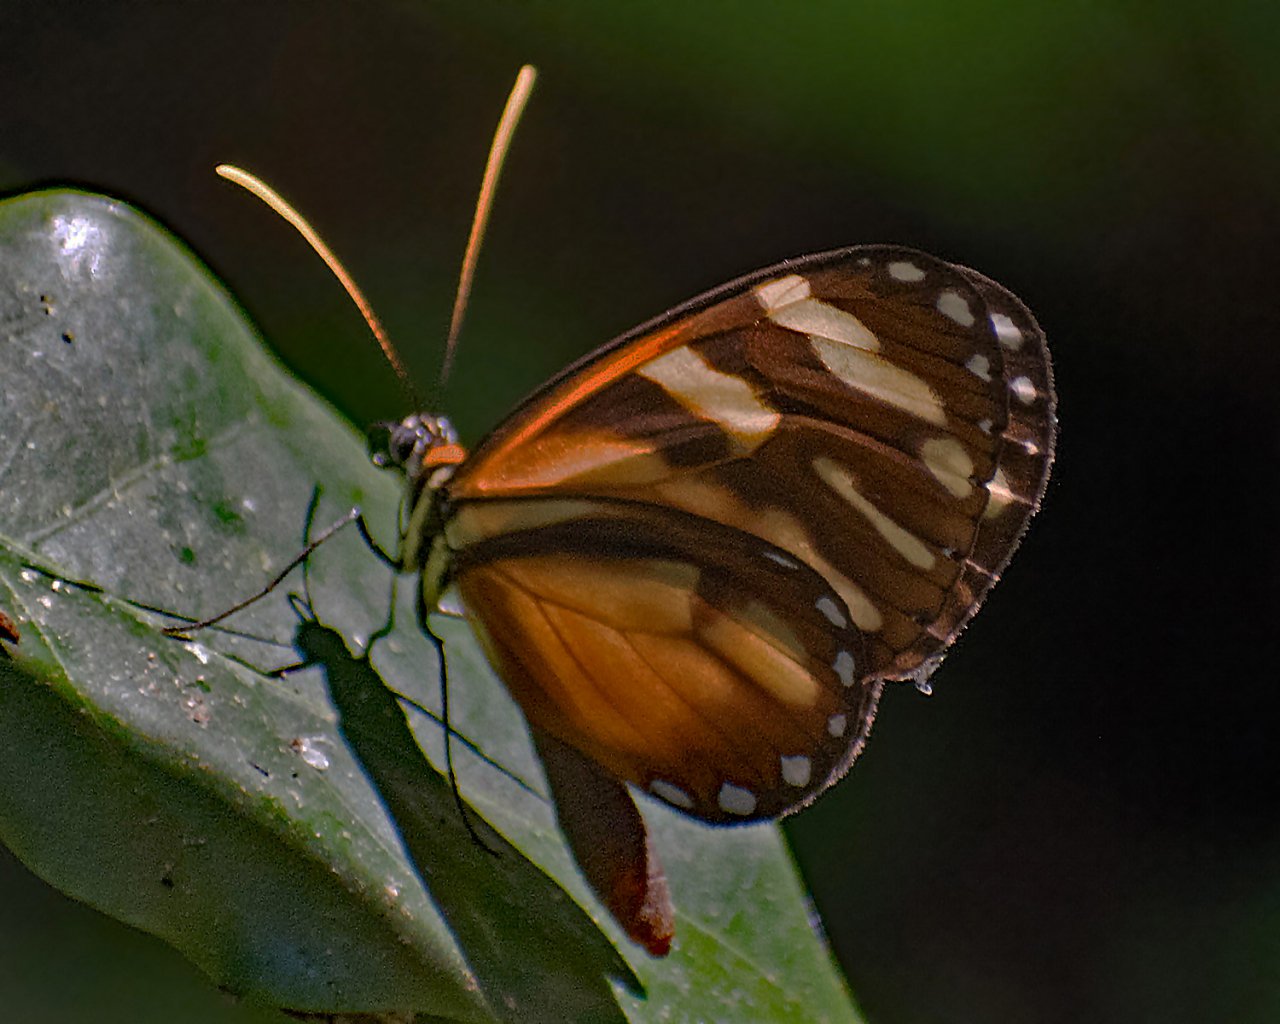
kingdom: Animalia
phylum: Arthropoda
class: Insecta
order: Lepidoptera
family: Nymphalidae
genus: Ithomia
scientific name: Ithomia heraldica
